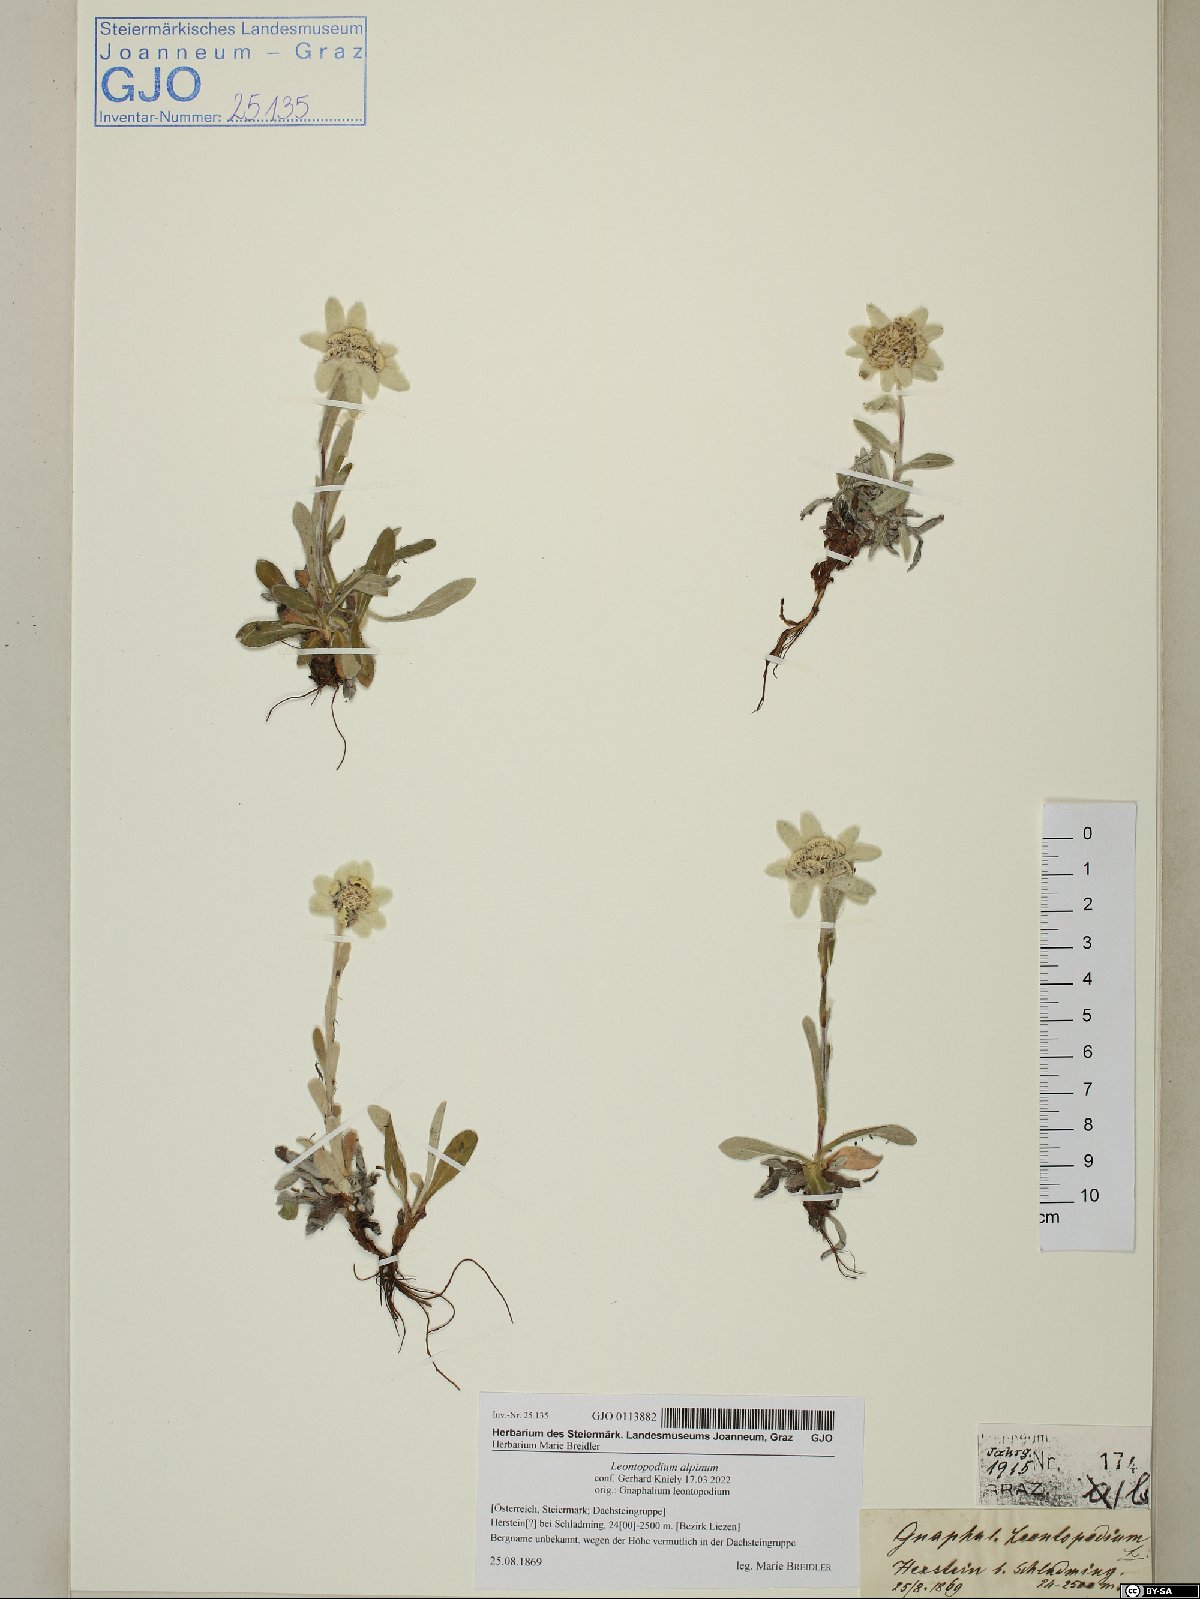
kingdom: Plantae
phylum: Tracheophyta
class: Magnoliopsida
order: Asterales
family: Asteraceae
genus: Leontopodium
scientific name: Leontopodium nivale
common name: Edelweiss
